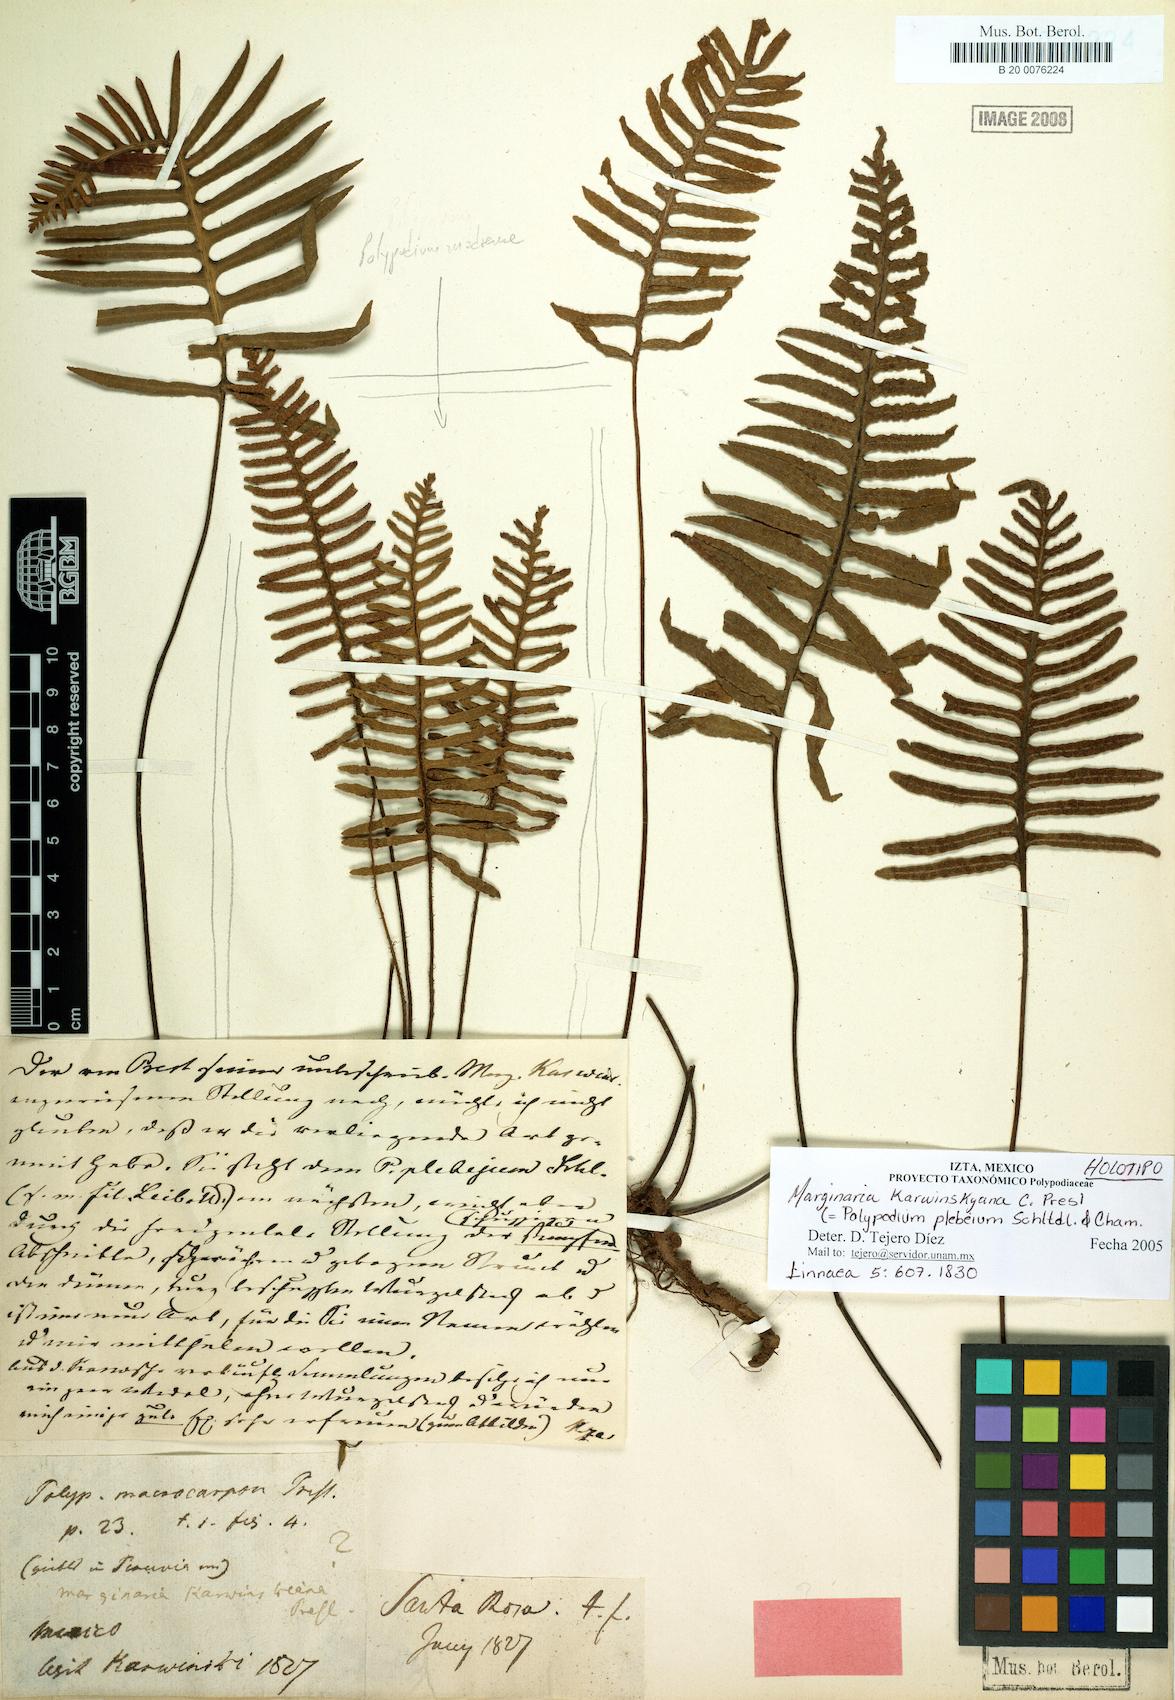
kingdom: Plantae
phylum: Tracheophyta
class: Polypodiopsida
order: Polypodiales
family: Polypodiaceae
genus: Pleopeltis
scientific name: Pleopeltis plebeia
